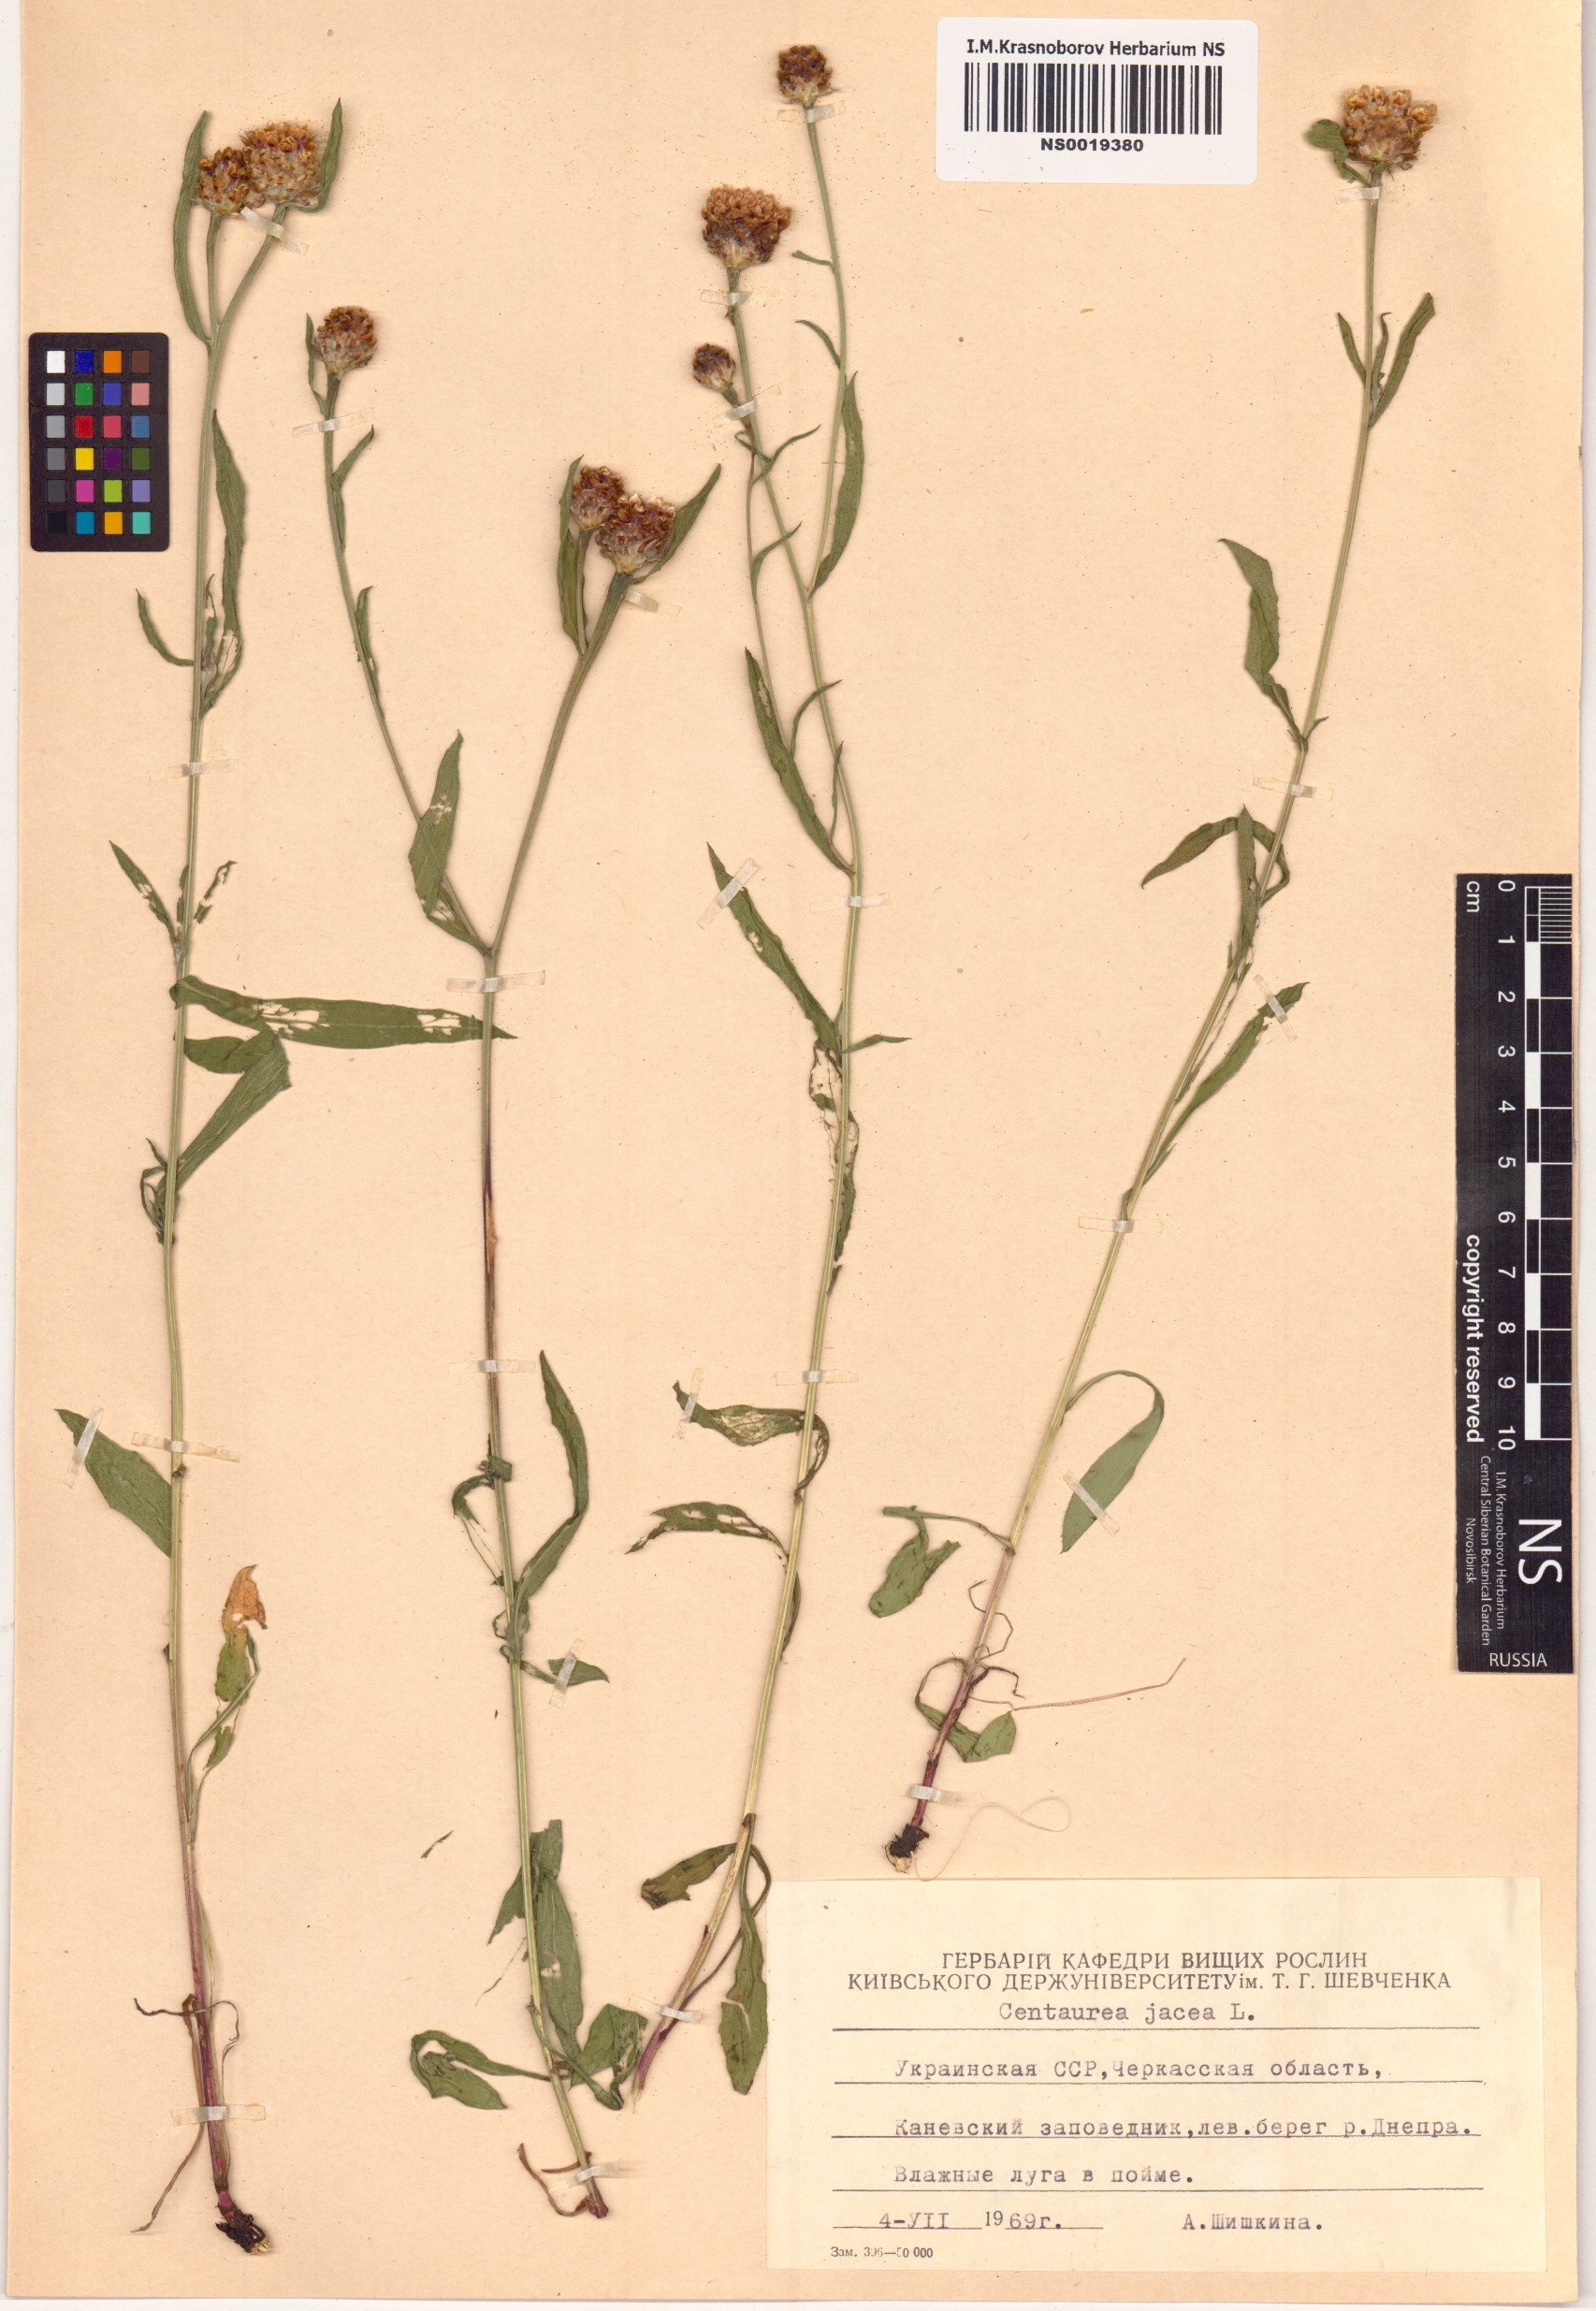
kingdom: Plantae
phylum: Tracheophyta
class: Magnoliopsida
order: Asterales
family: Asteraceae
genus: Centaurea
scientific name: Centaurea jacea
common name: Brown knapweed
